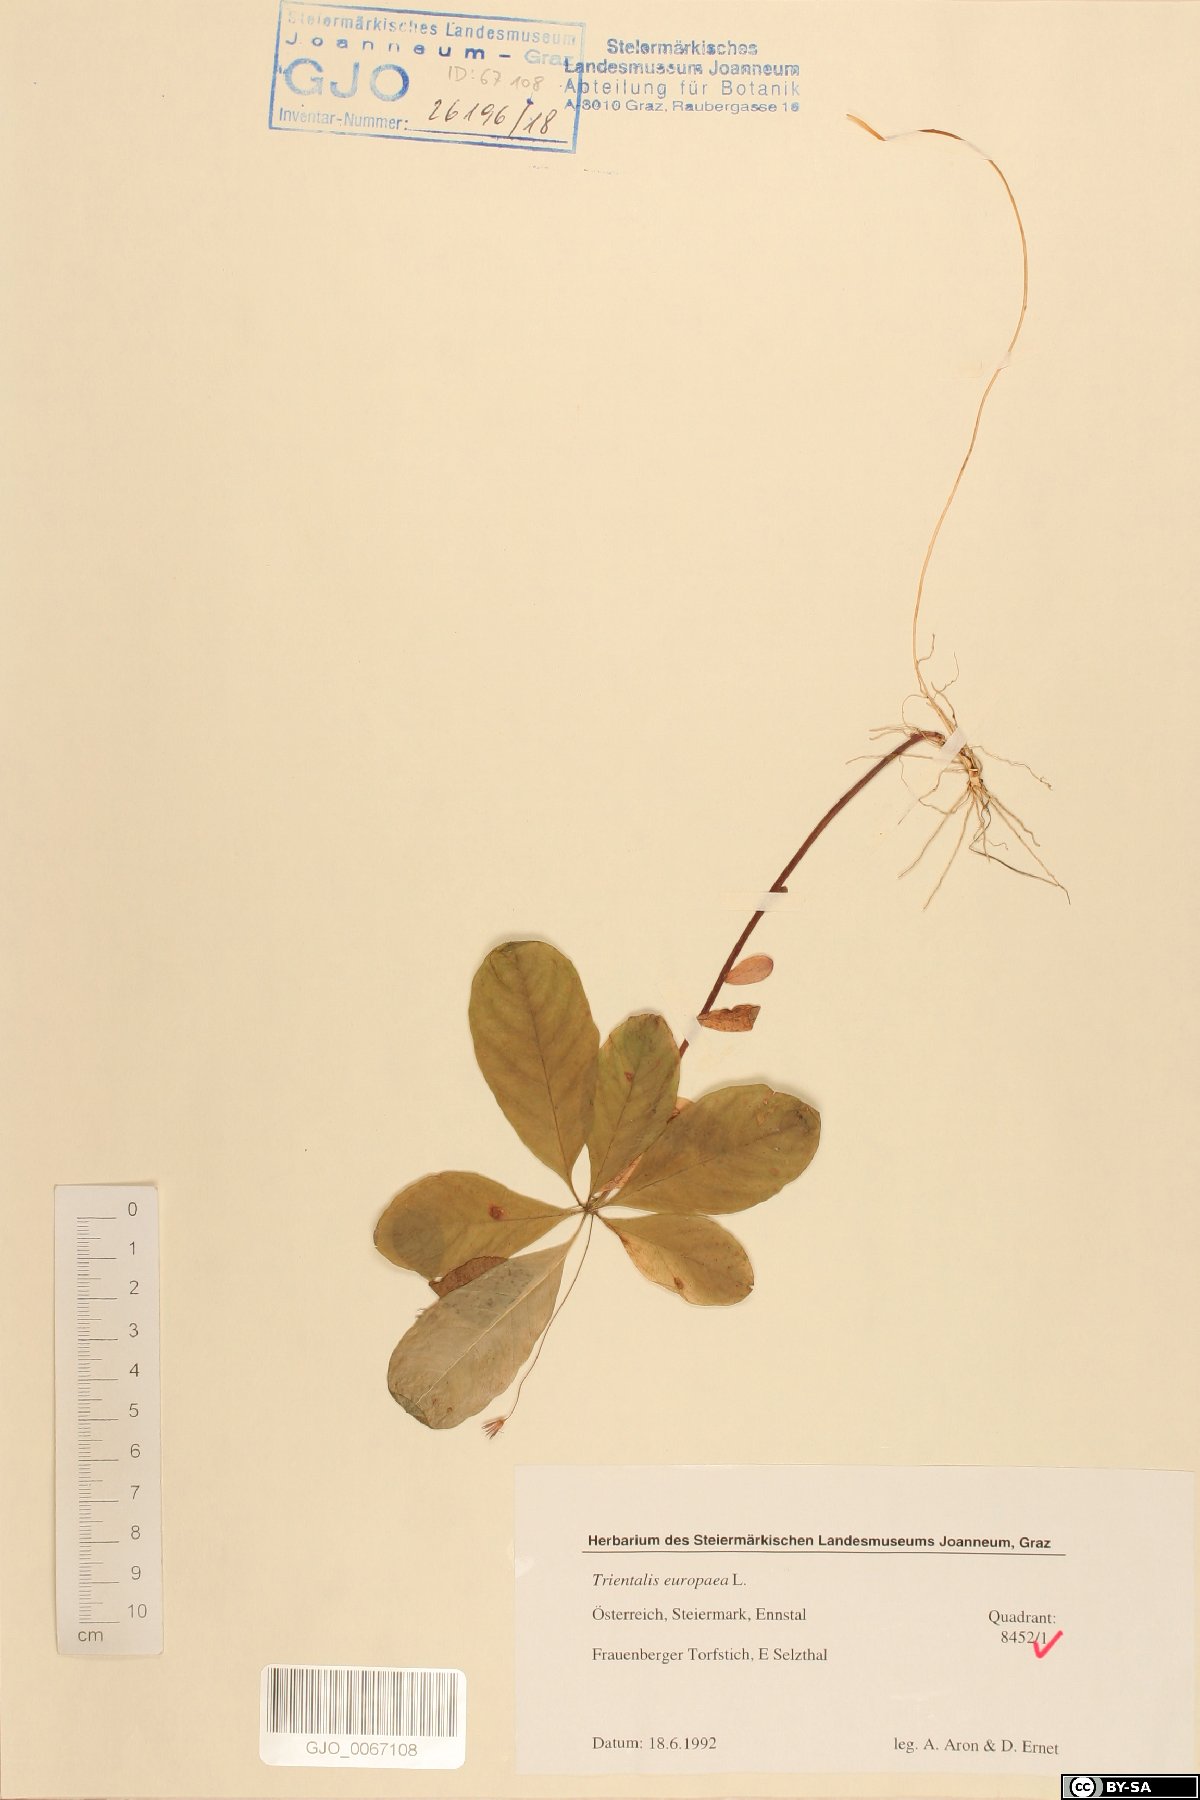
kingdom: Plantae
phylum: Tracheophyta
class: Magnoliopsida
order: Ericales
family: Primulaceae
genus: Lysimachia
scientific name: Lysimachia europaea
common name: Arctic starflower
